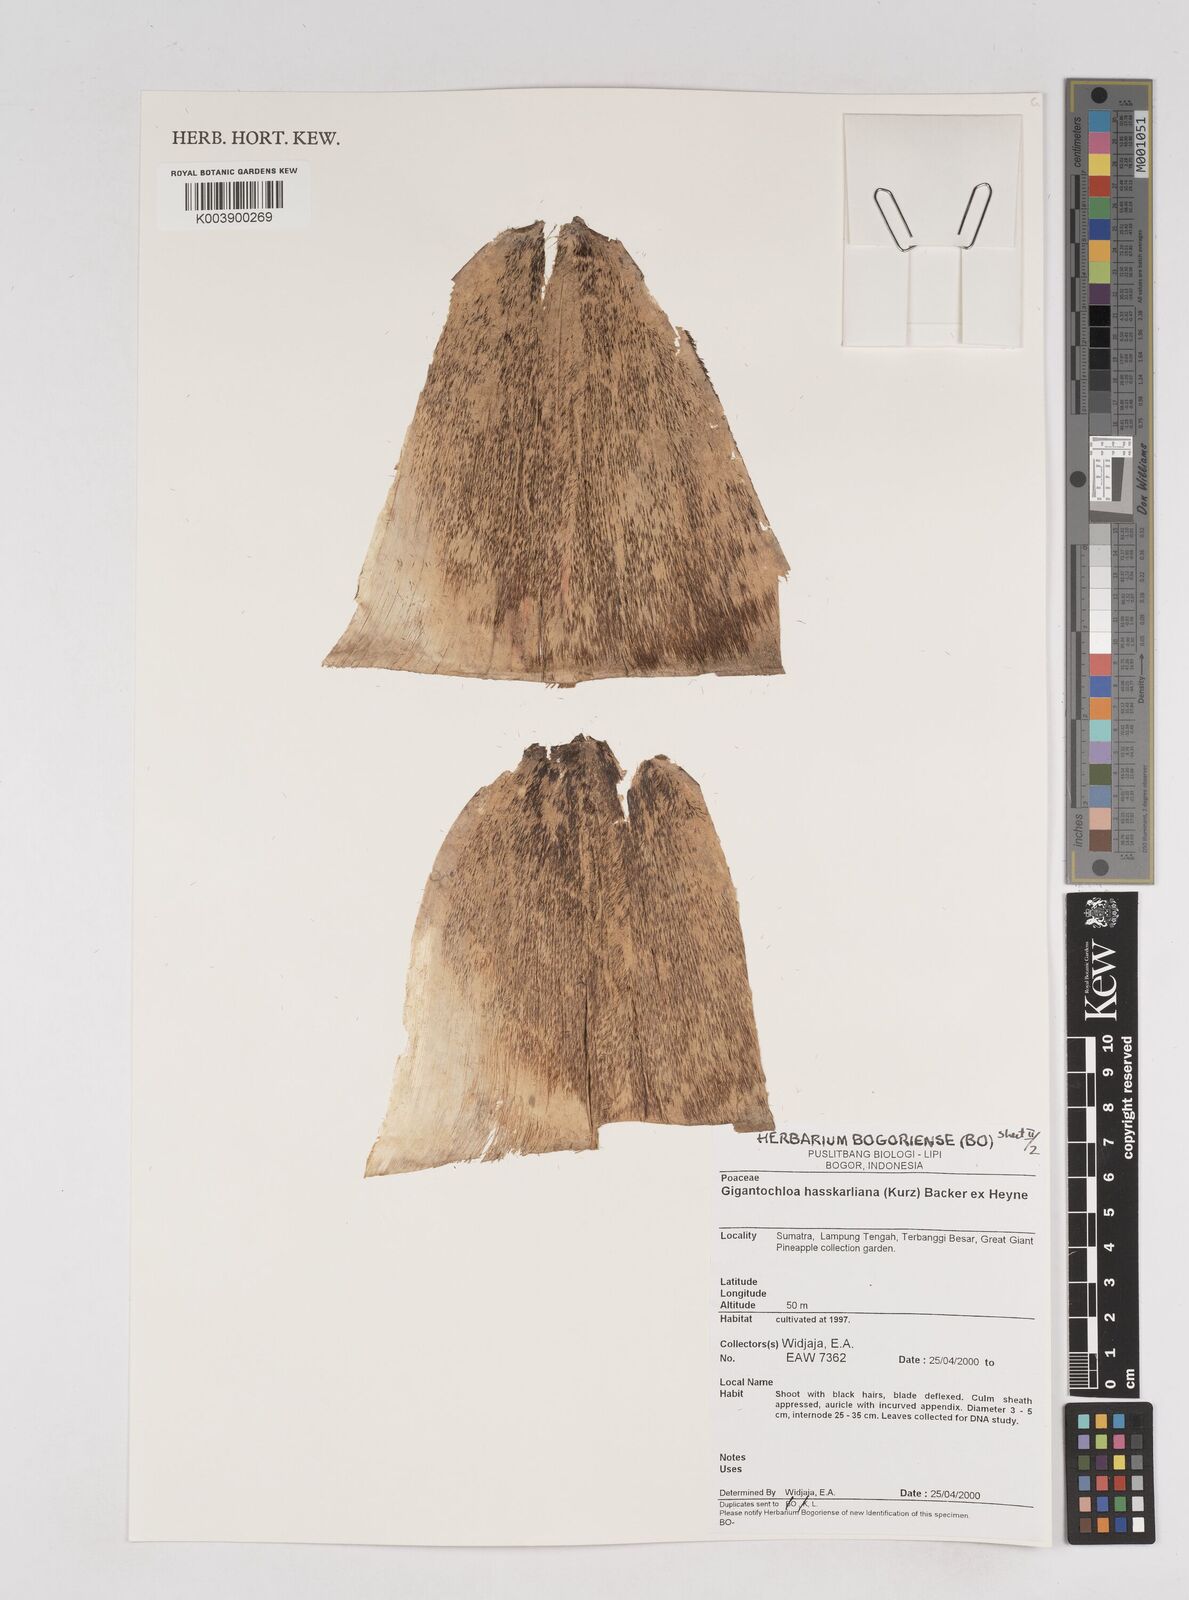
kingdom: Plantae
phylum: Tracheophyta
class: Liliopsida
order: Poales
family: Poaceae
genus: Gigantochloa
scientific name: Gigantochloa hasskarliana
